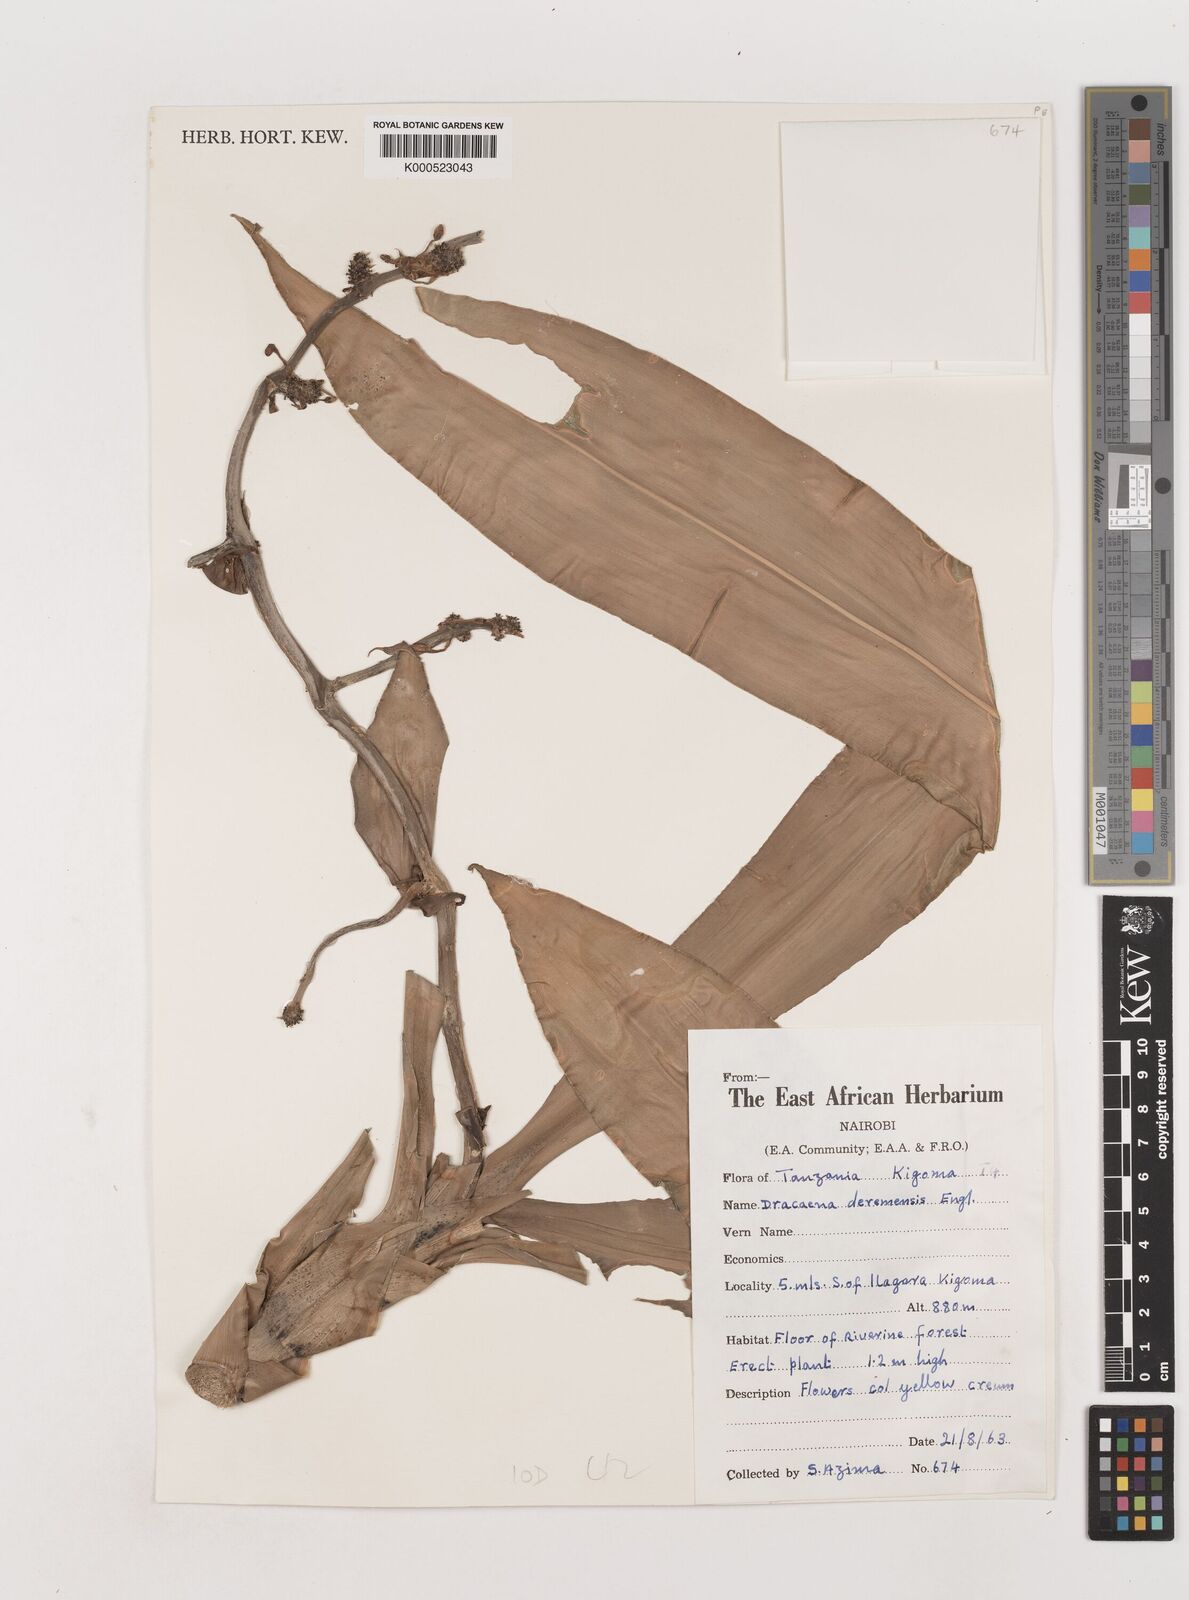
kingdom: Plantae
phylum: Tracheophyta
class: Liliopsida
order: Asparagales
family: Asparagaceae
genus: Dracaena
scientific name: Dracaena fragrans
